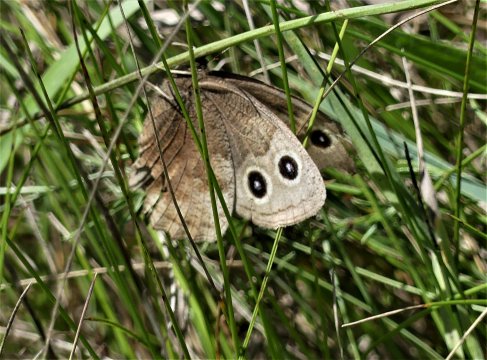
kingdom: Animalia
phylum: Arthropoda
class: Insecta
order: Lepidoptera
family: Nymphalidae
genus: Cercyonis
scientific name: Cercyonis pegala
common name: Common Wood-Nymph
